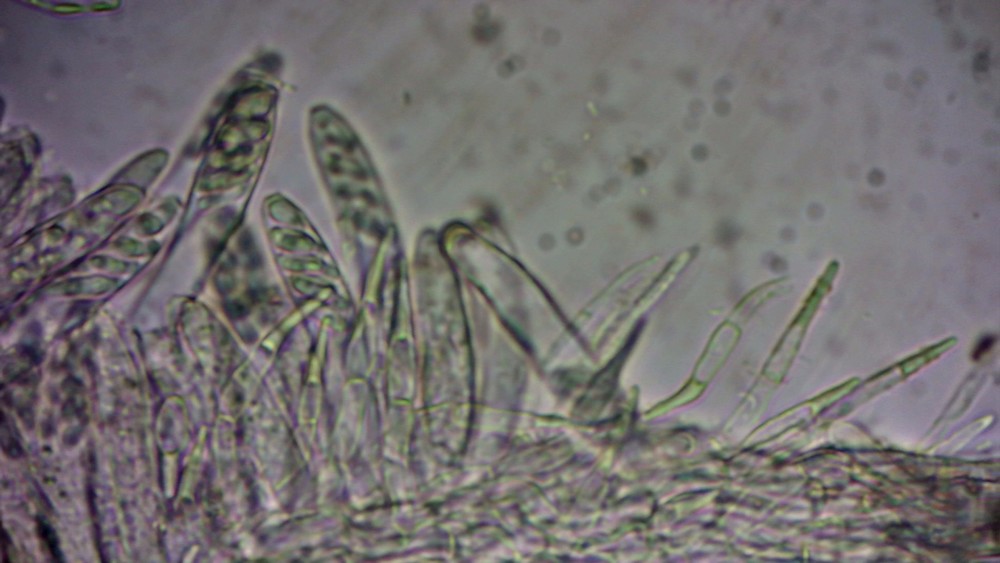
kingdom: Fungi
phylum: Ascomycota
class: Leotiomycetes
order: Helotiales
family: Hyaloscyphaceae
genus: Protounguicularia
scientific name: Protounguicularia transiens
